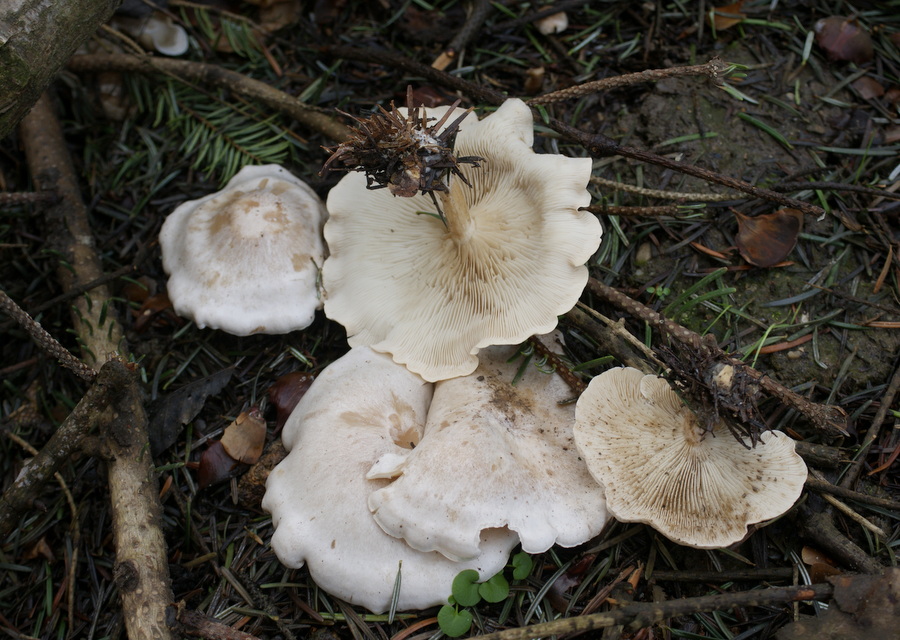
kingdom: Fungi
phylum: Basidiomycota
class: Agaricomycetes
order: Agaricales
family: Tricholomataceae
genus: Clitocybe
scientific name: Clitocybe phyllophila
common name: løv-tragthat
